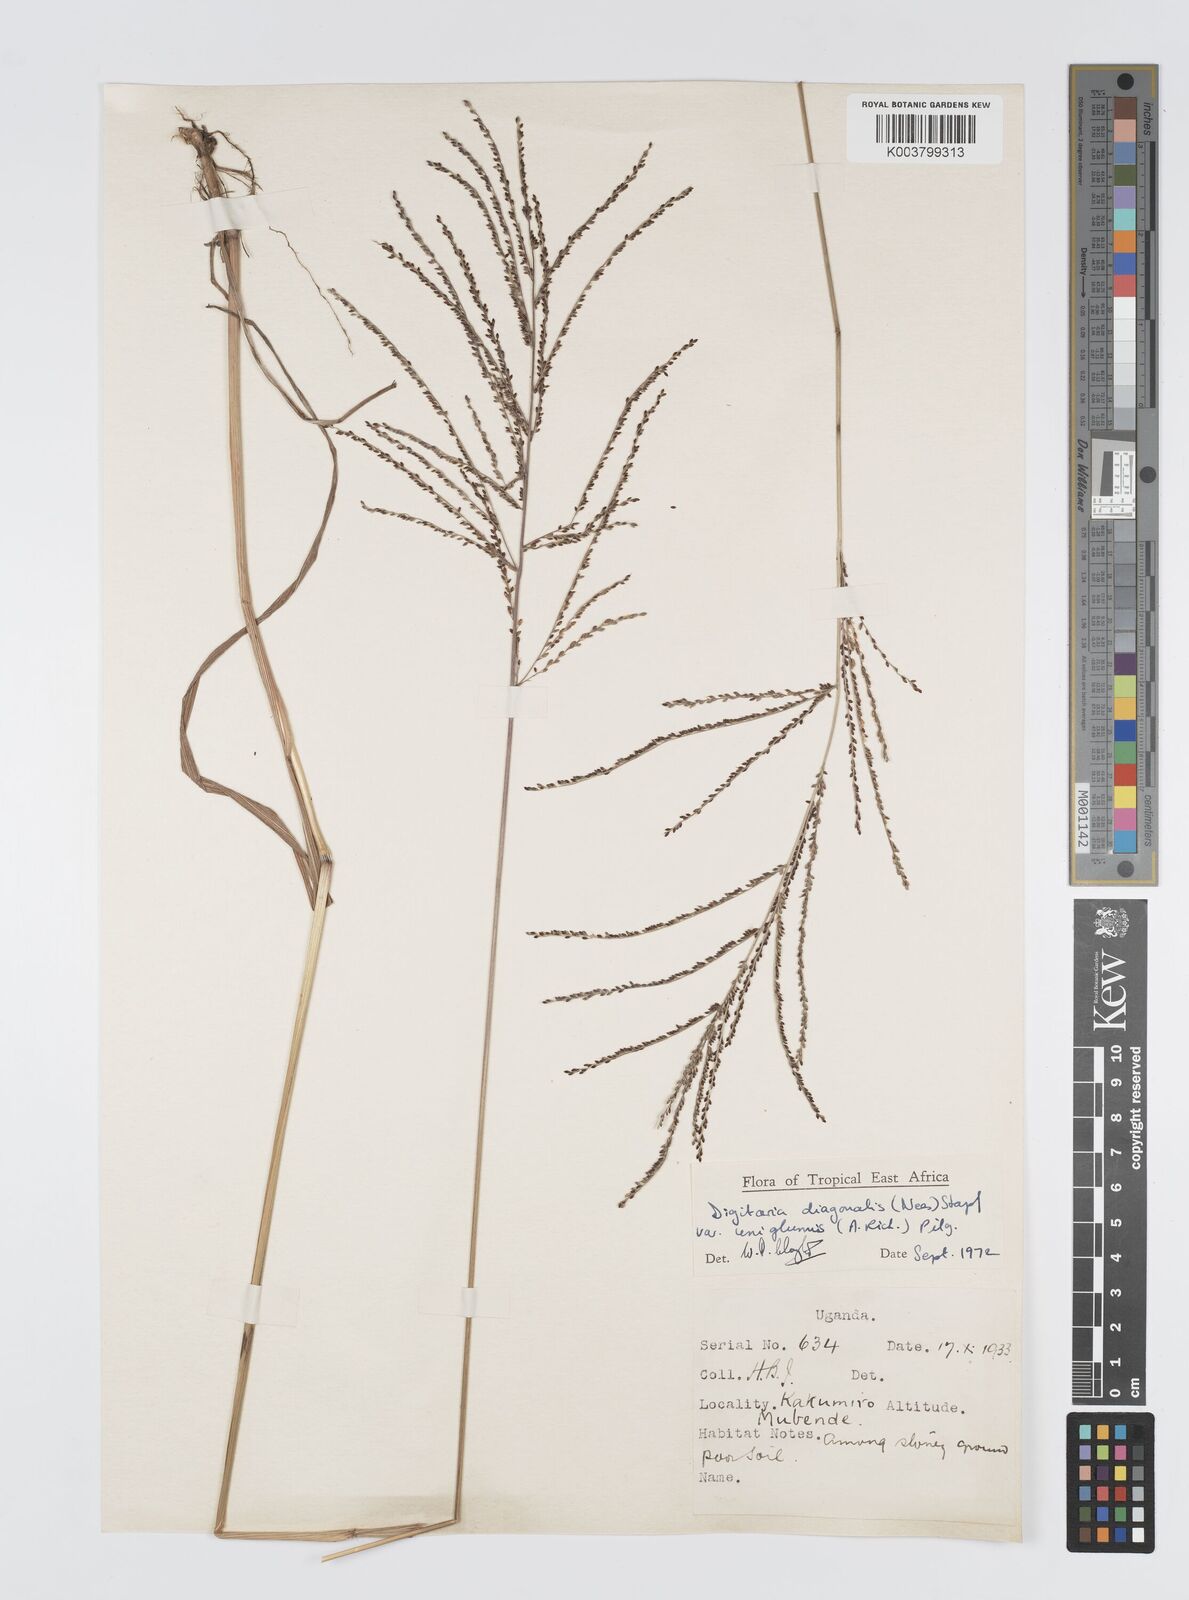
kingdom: Plantae
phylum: Tracheophyta
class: Liliopsida
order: Poales
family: Poaceae
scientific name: Poaceae
